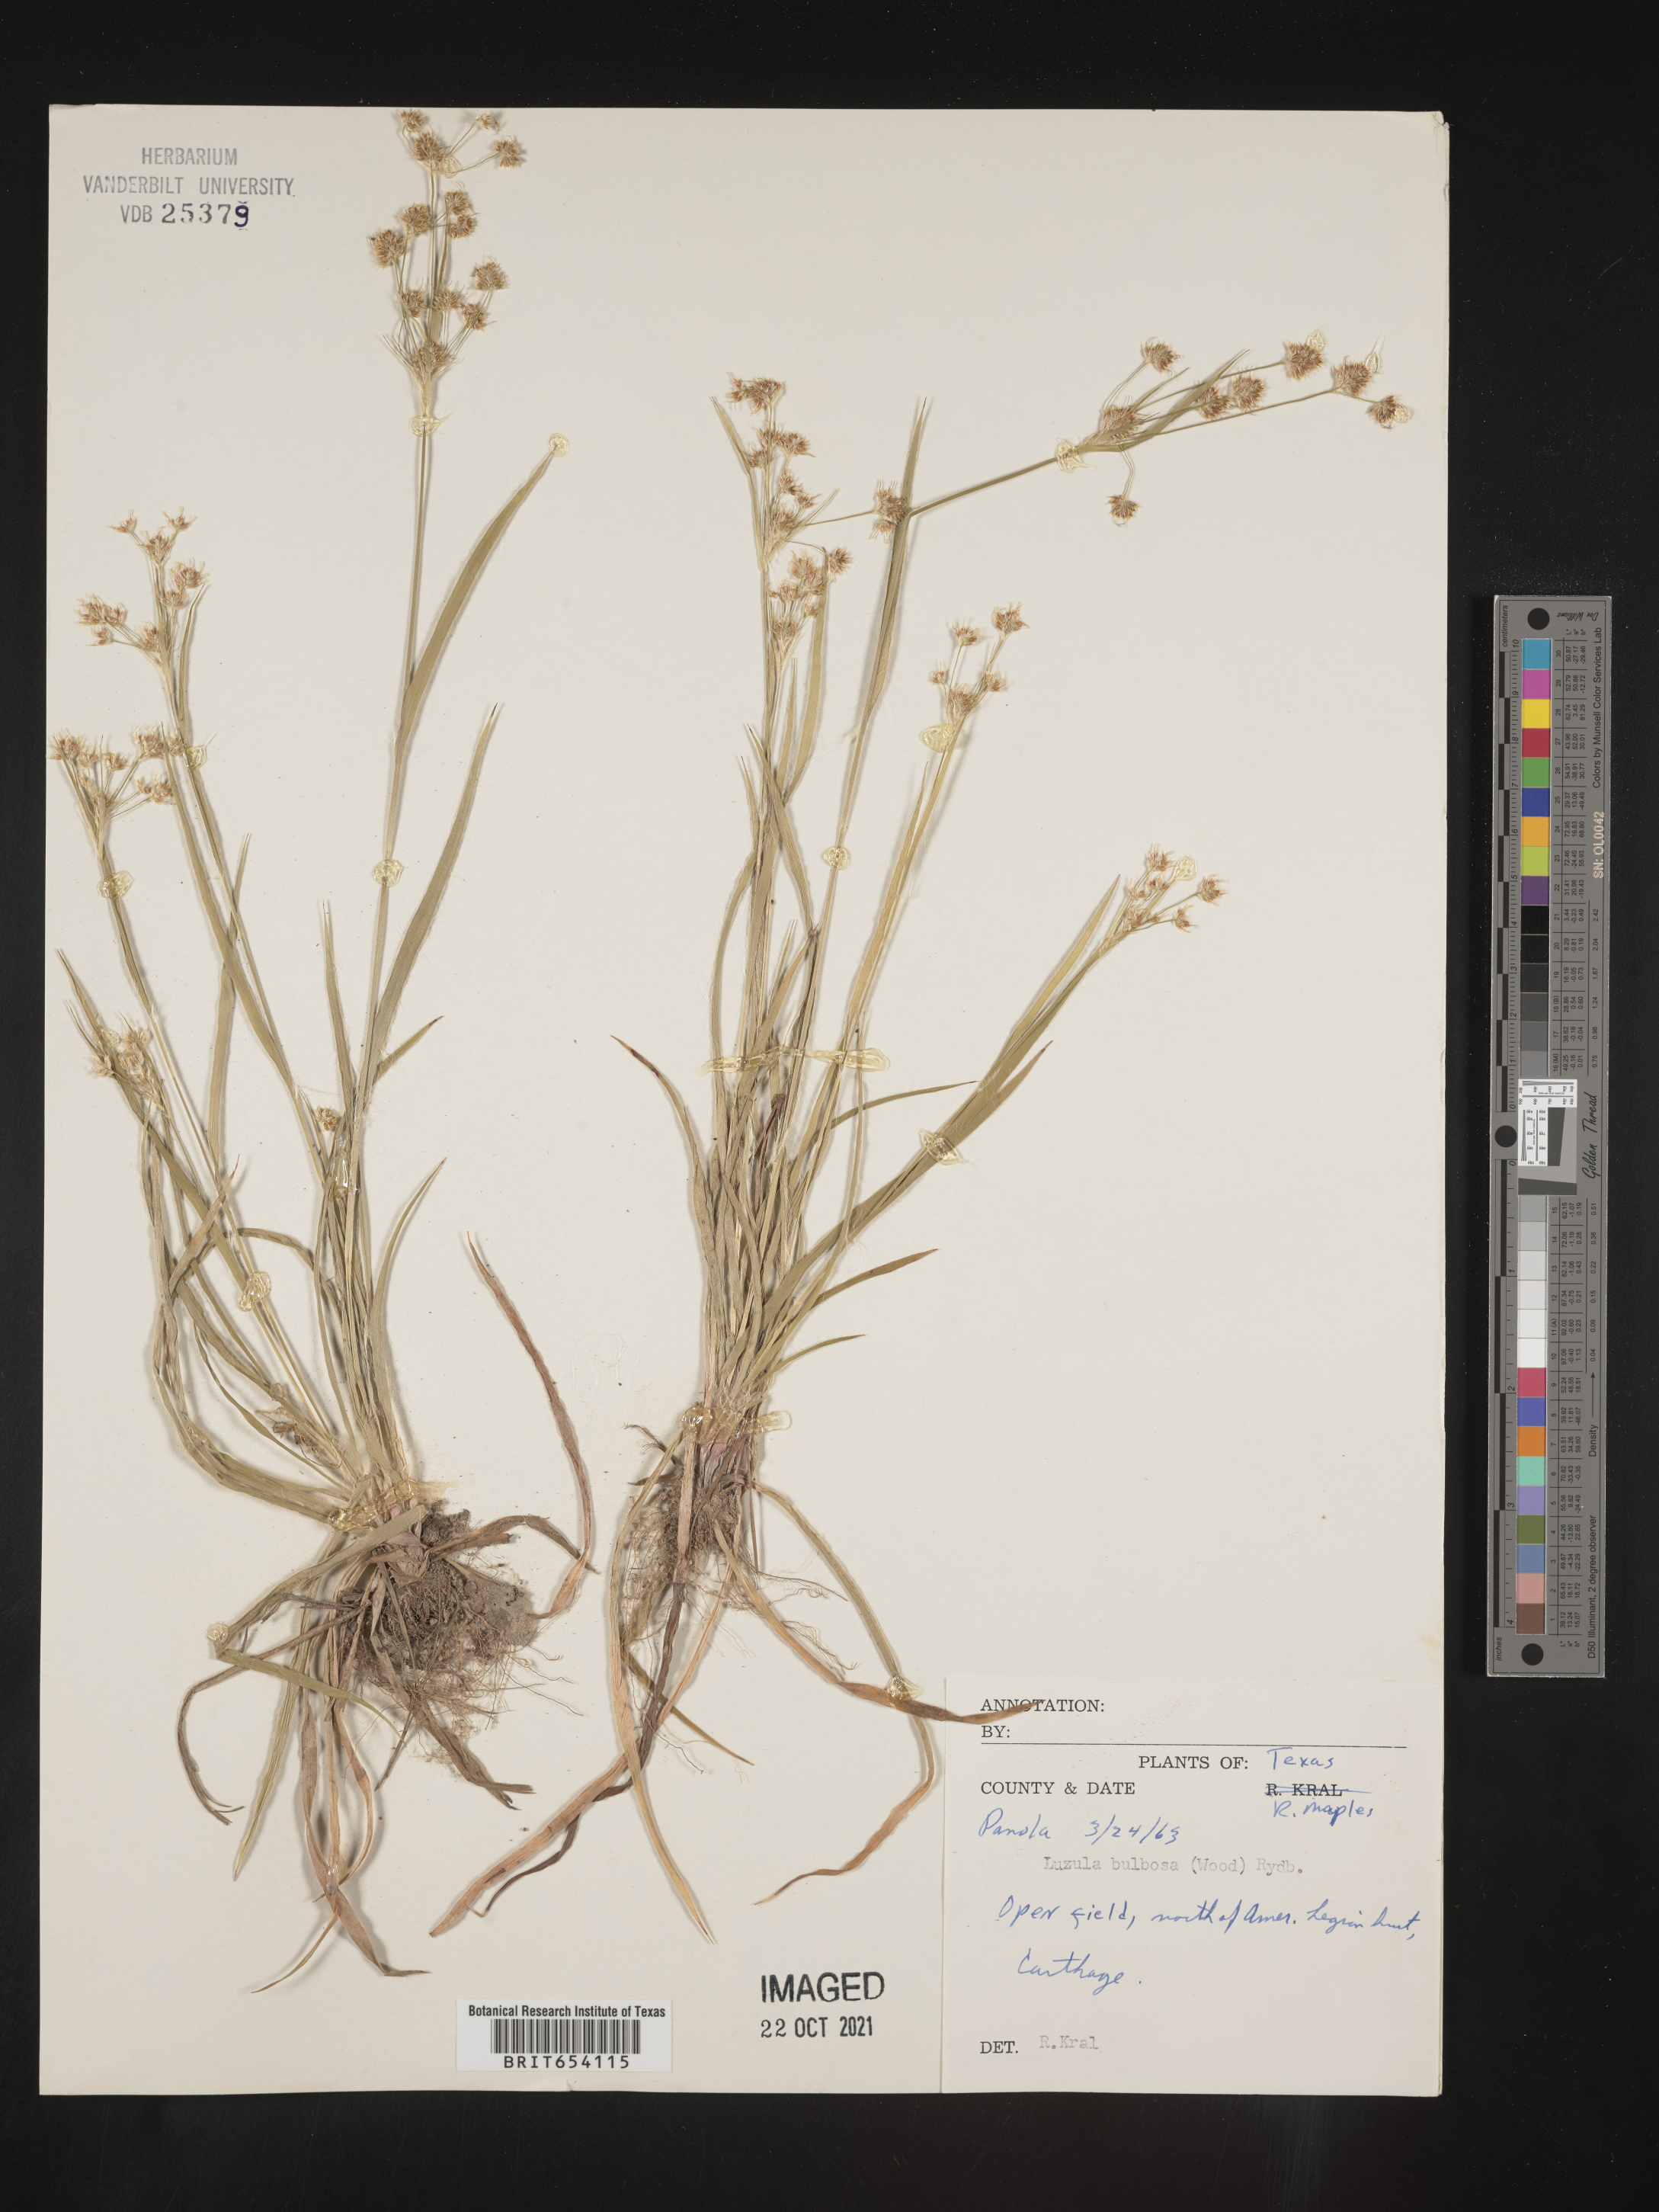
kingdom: Plantae
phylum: Tracheophyta
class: Liliopsida
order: Poales
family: Juncaceae
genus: Luzula
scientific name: Luzula bulbosa
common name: Bulbous woodrush
